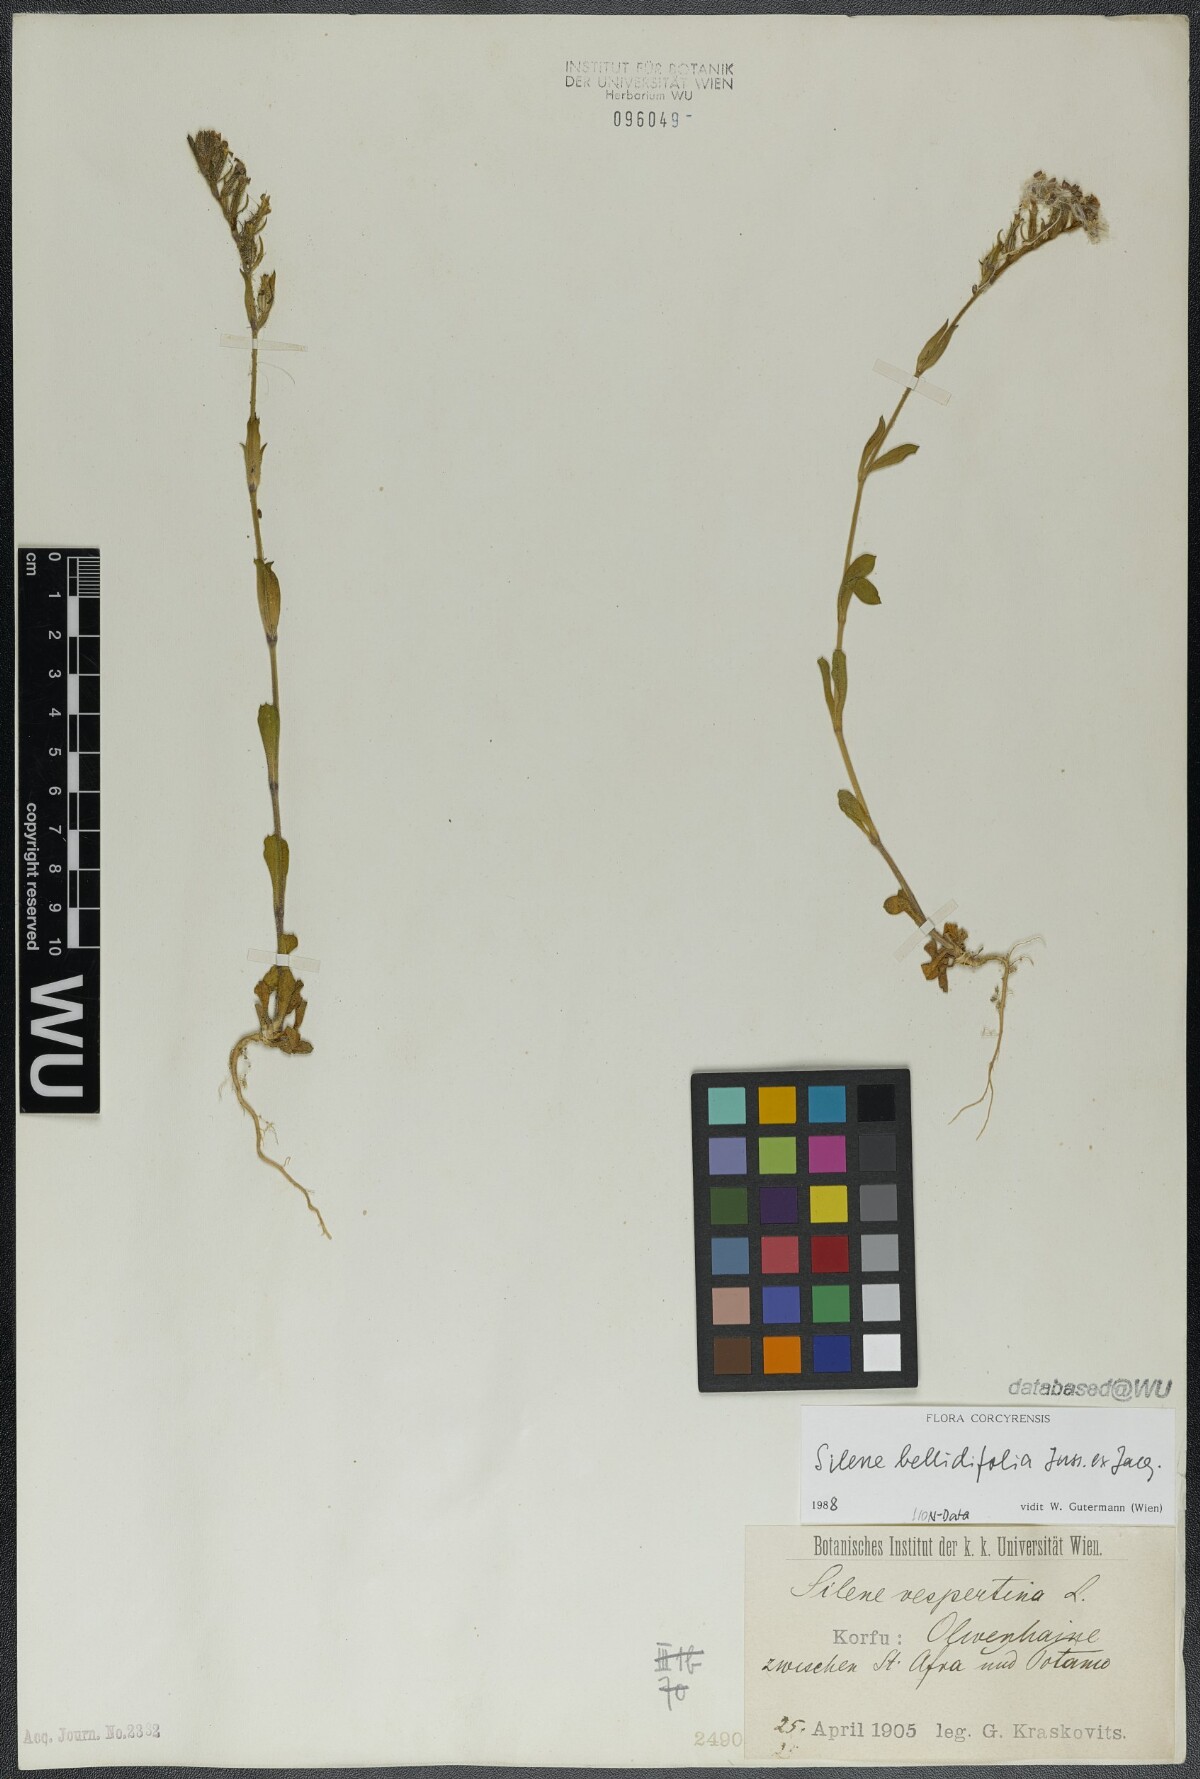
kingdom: Plantae
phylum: Tracheophyta
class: Magnoliopsida
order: Caryophyllales
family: Caryophyllaceae
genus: Silene
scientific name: Silene bellidifolia
